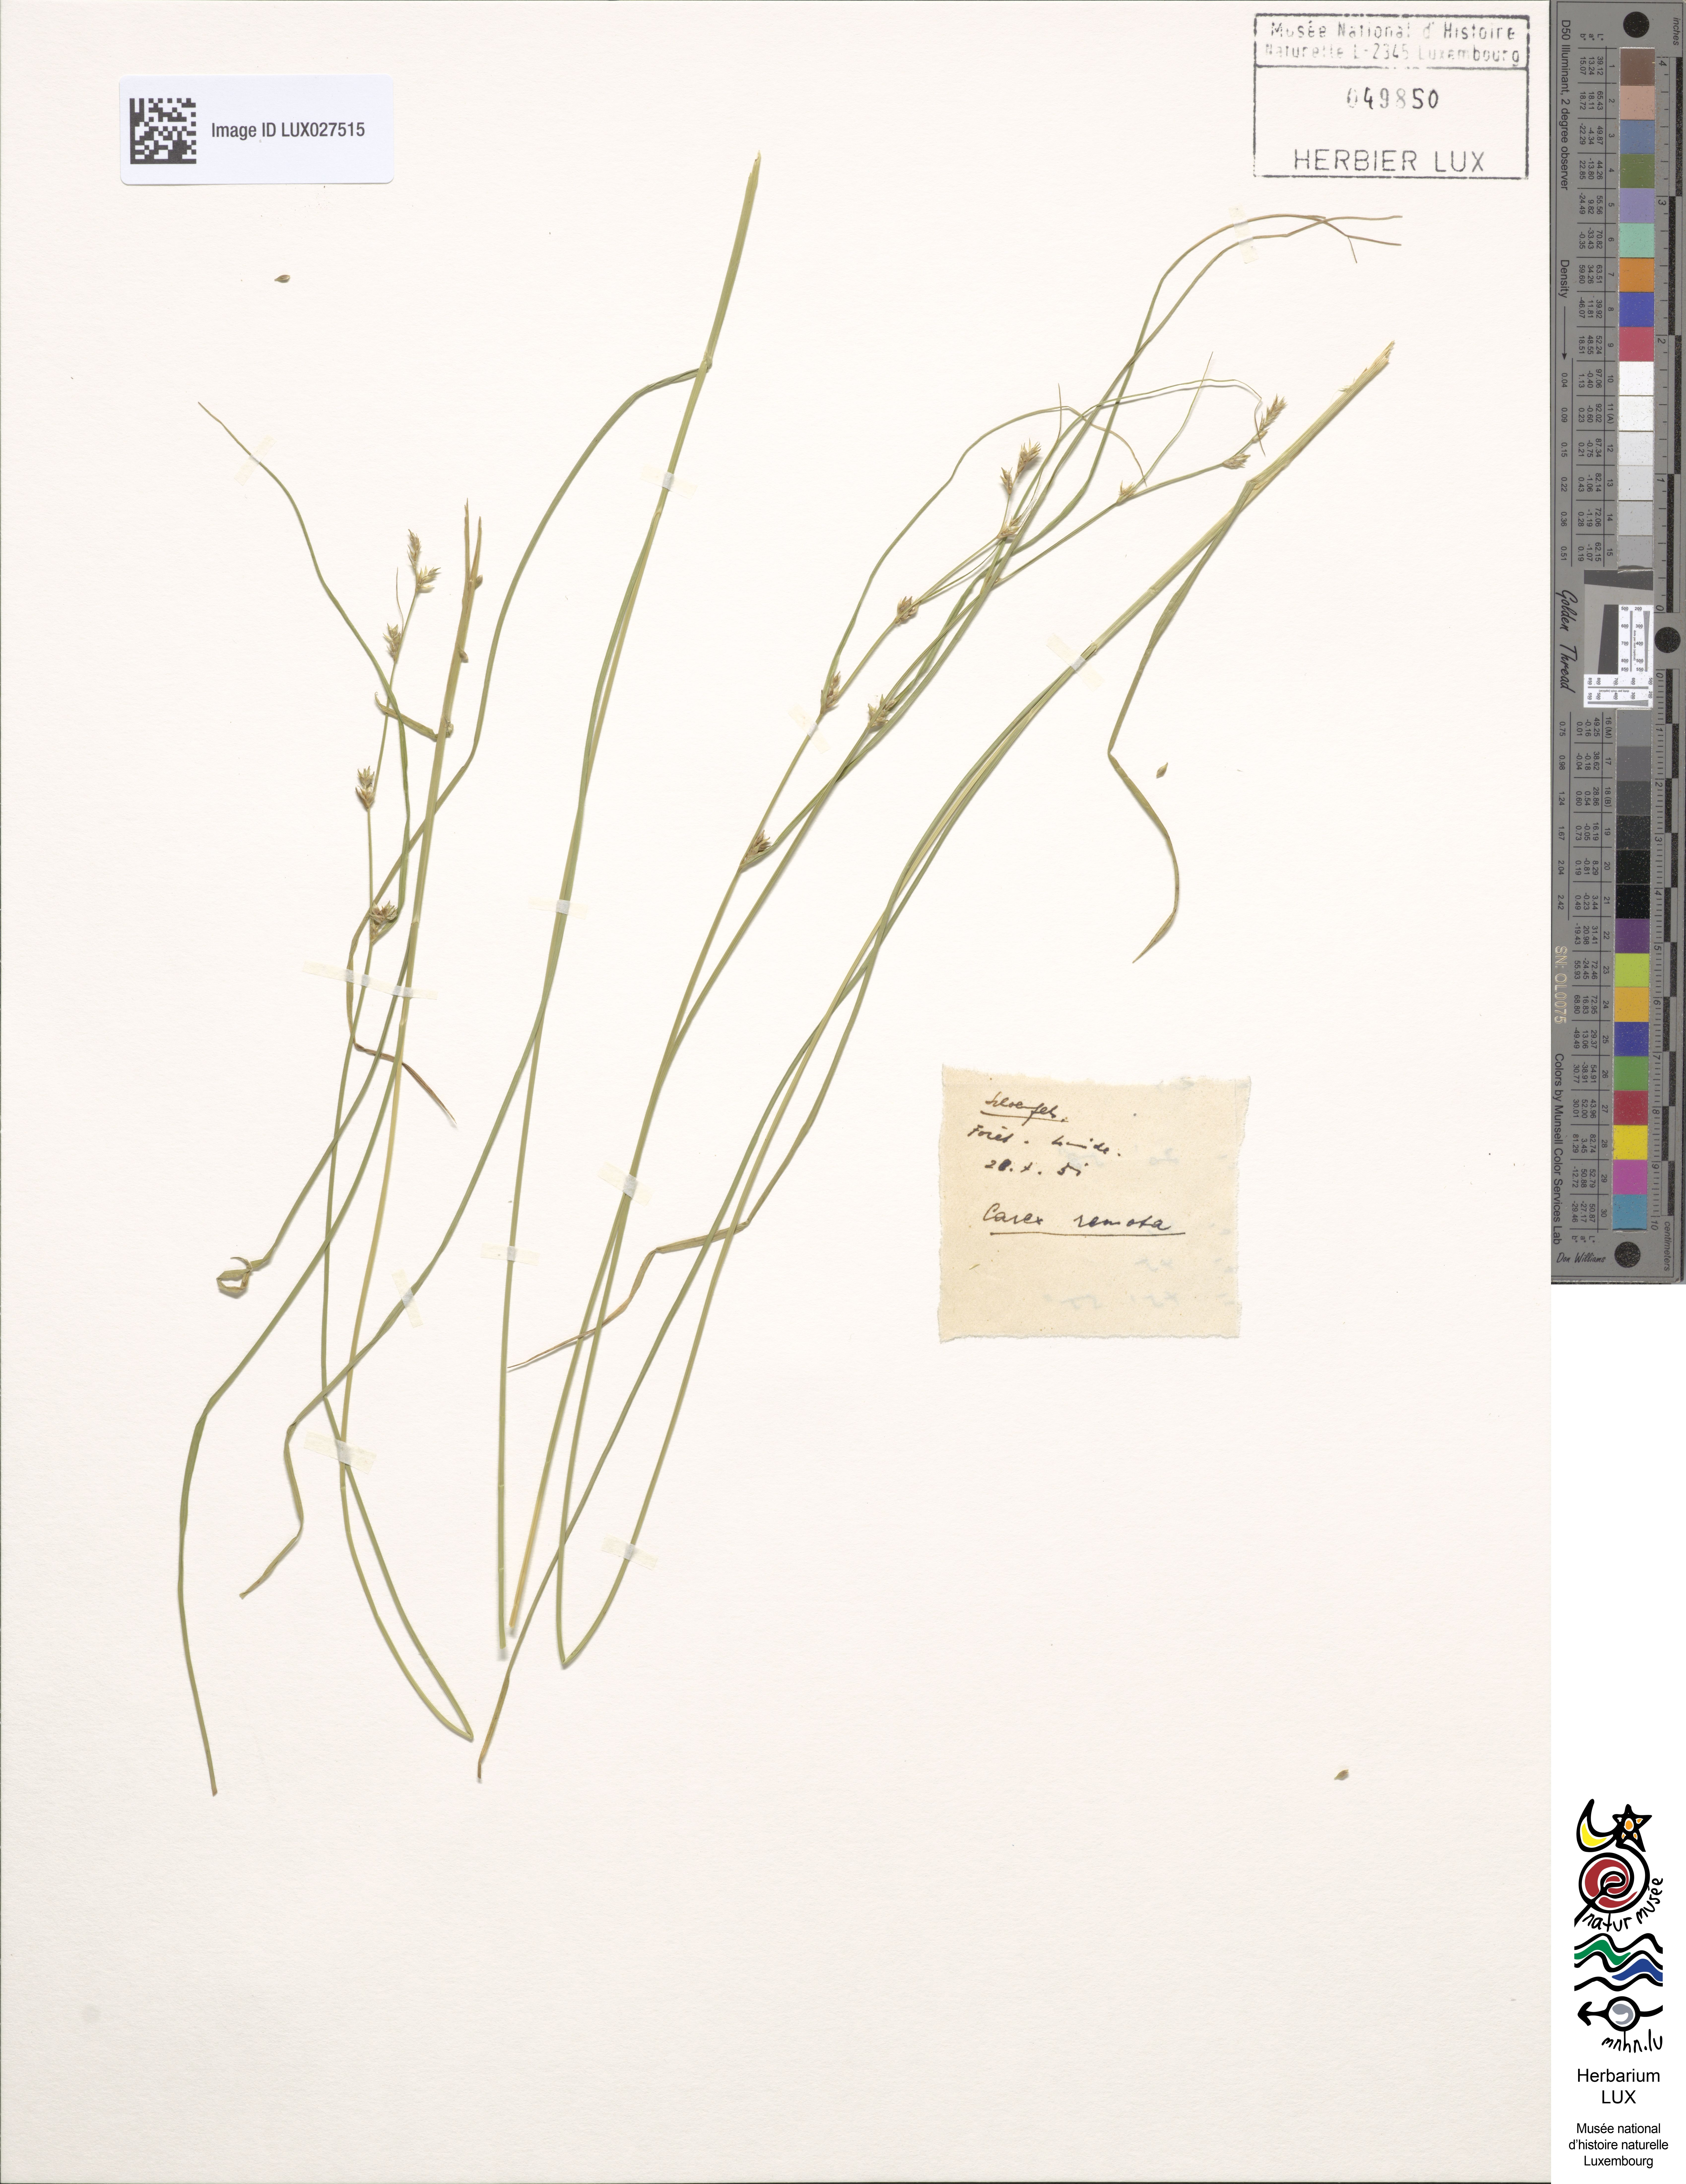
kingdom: Plantae
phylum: Tracheophyta
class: Liliopsida
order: Poales
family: Cyperaceae
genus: Carex
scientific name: Carex remota
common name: Remote sedge
